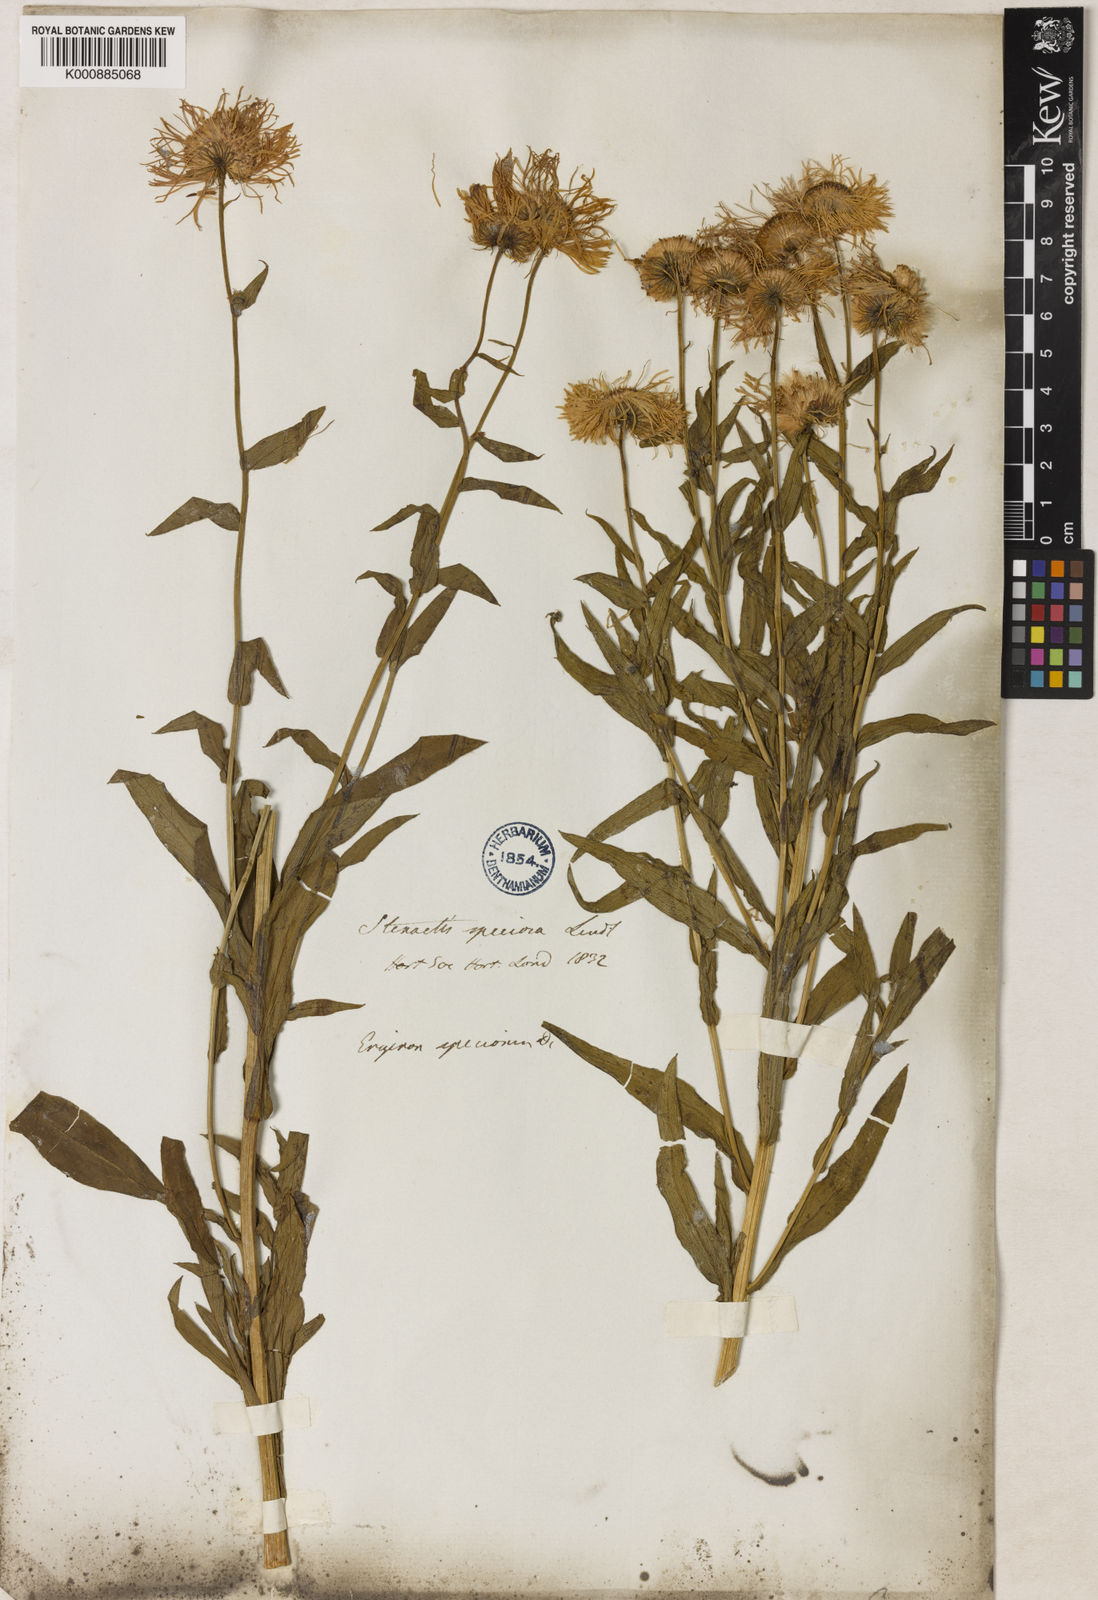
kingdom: Plantae
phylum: Tracheophyta
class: Magnoliopsida
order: Asterales
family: Asteraceae
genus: Erigeron
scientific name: Erigeron speciosus
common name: Aspen fleabane
